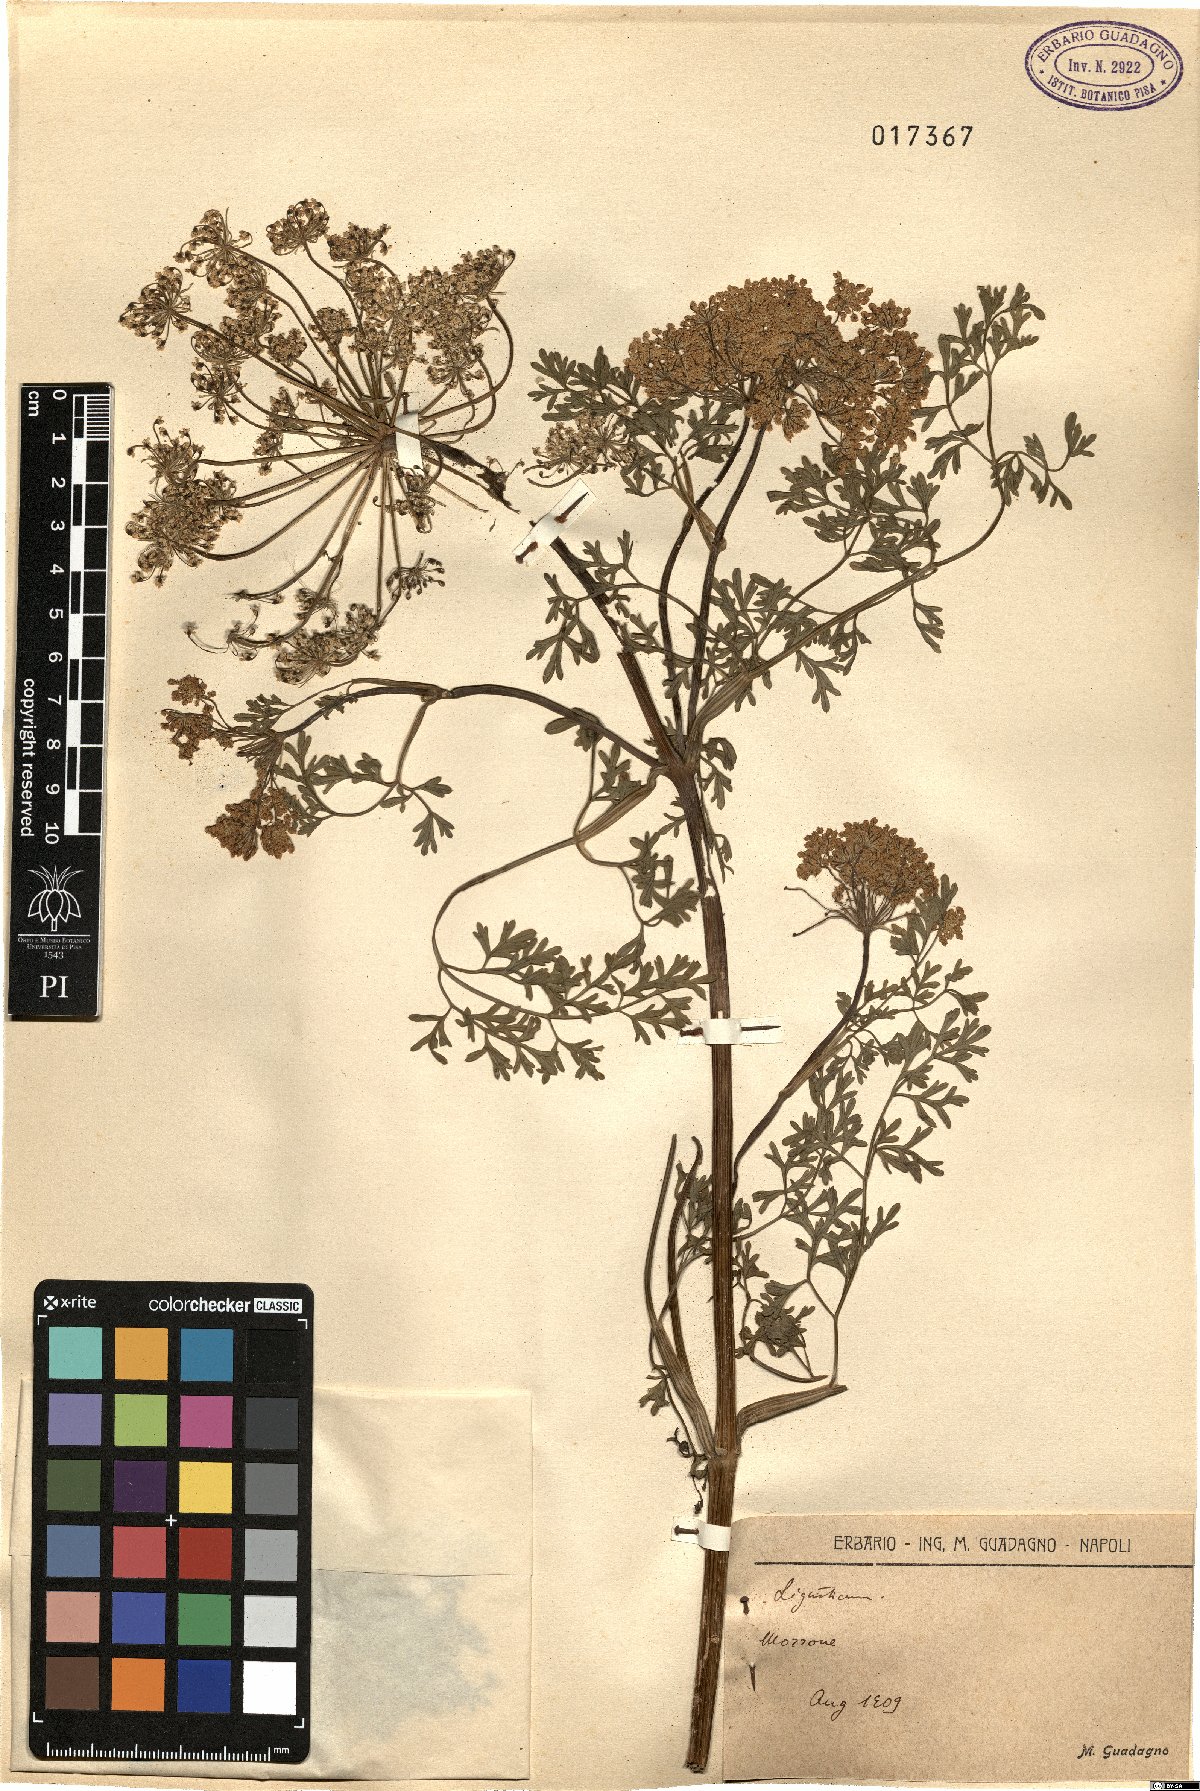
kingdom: Plantae
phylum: Tracheophyta
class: Magnoliopsida
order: Apiales
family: Apiaceae
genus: Ligusticum
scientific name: Ligusticum
